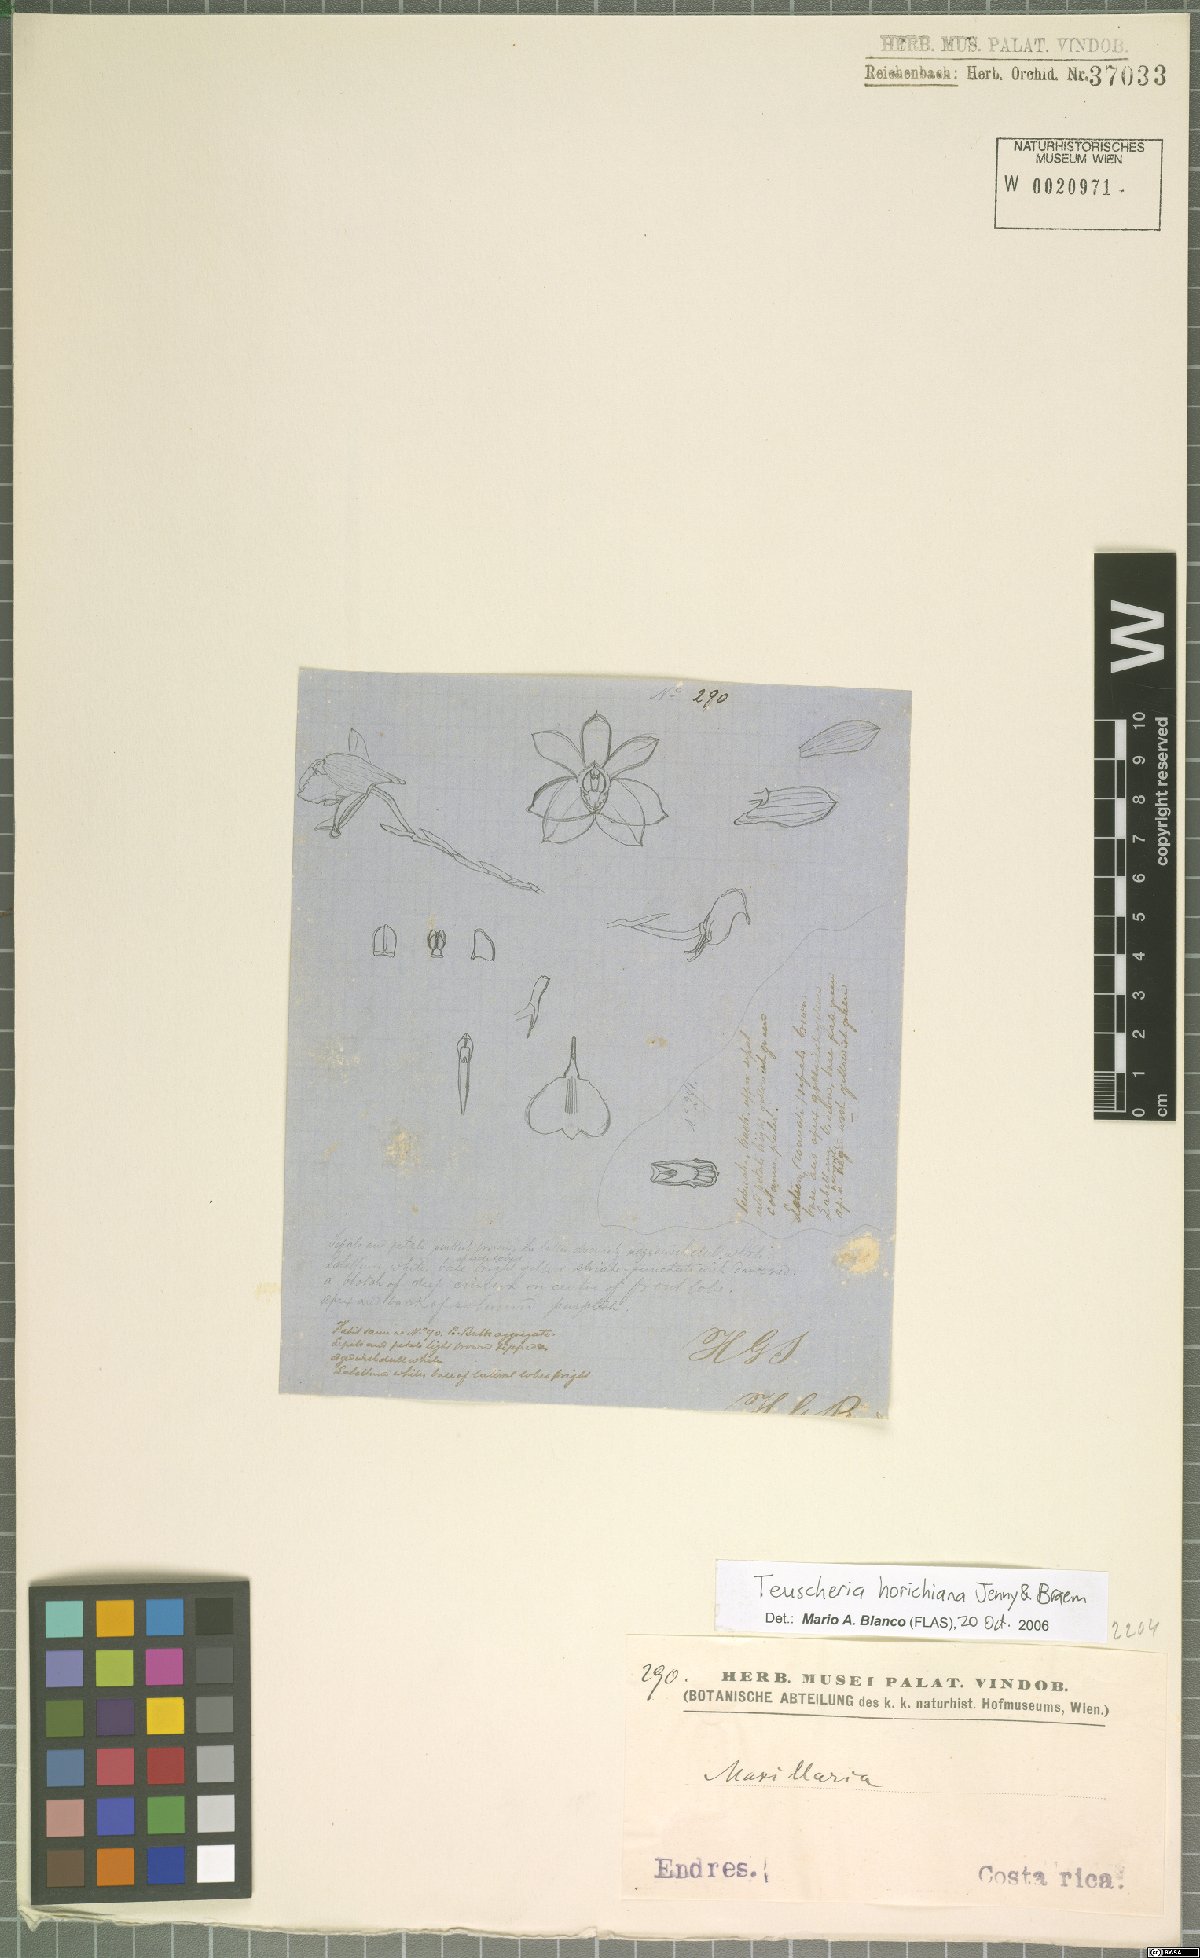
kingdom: Plantae
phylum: Tracheophyta
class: Liliopsida
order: Asparagales
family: Orchidaceae
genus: Teuscheria
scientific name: Teuscheria horichiana
